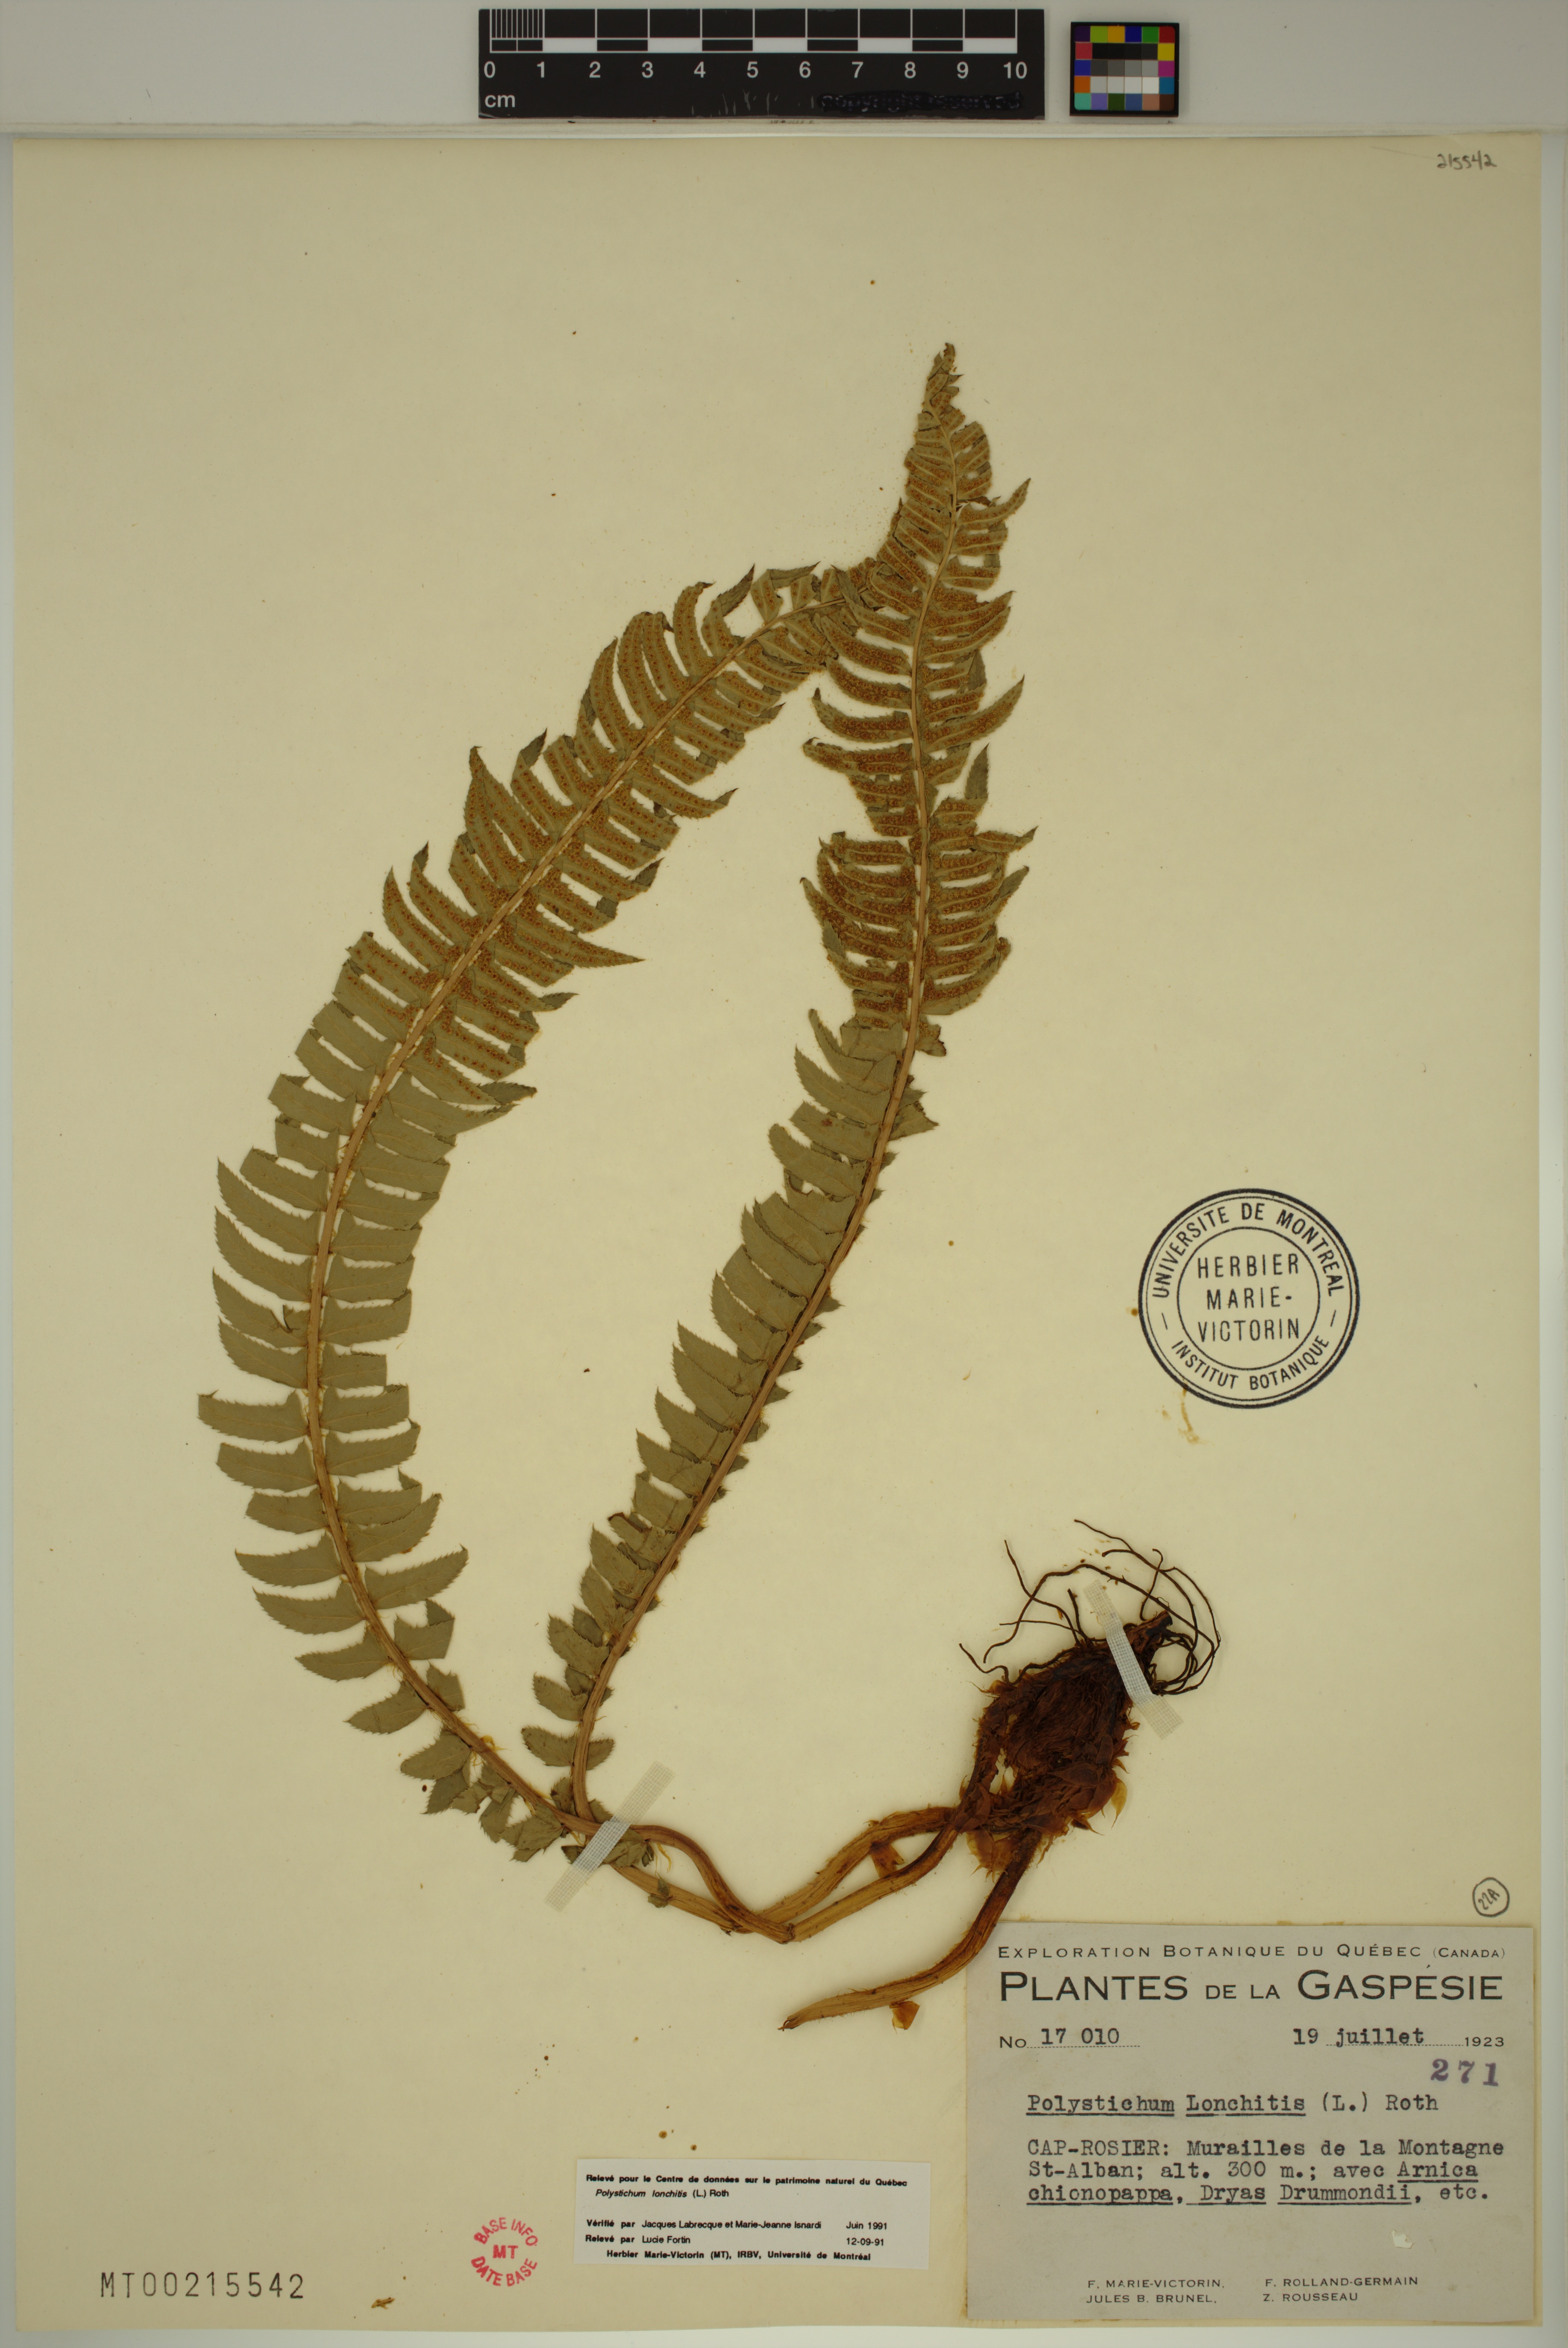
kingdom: Plantae
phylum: Tracheophyta
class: Polypodiopsida
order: Polypodiales
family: Dryopteridaceae
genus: Polystichum
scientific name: Polystichum lonchitis
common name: Holly fern
